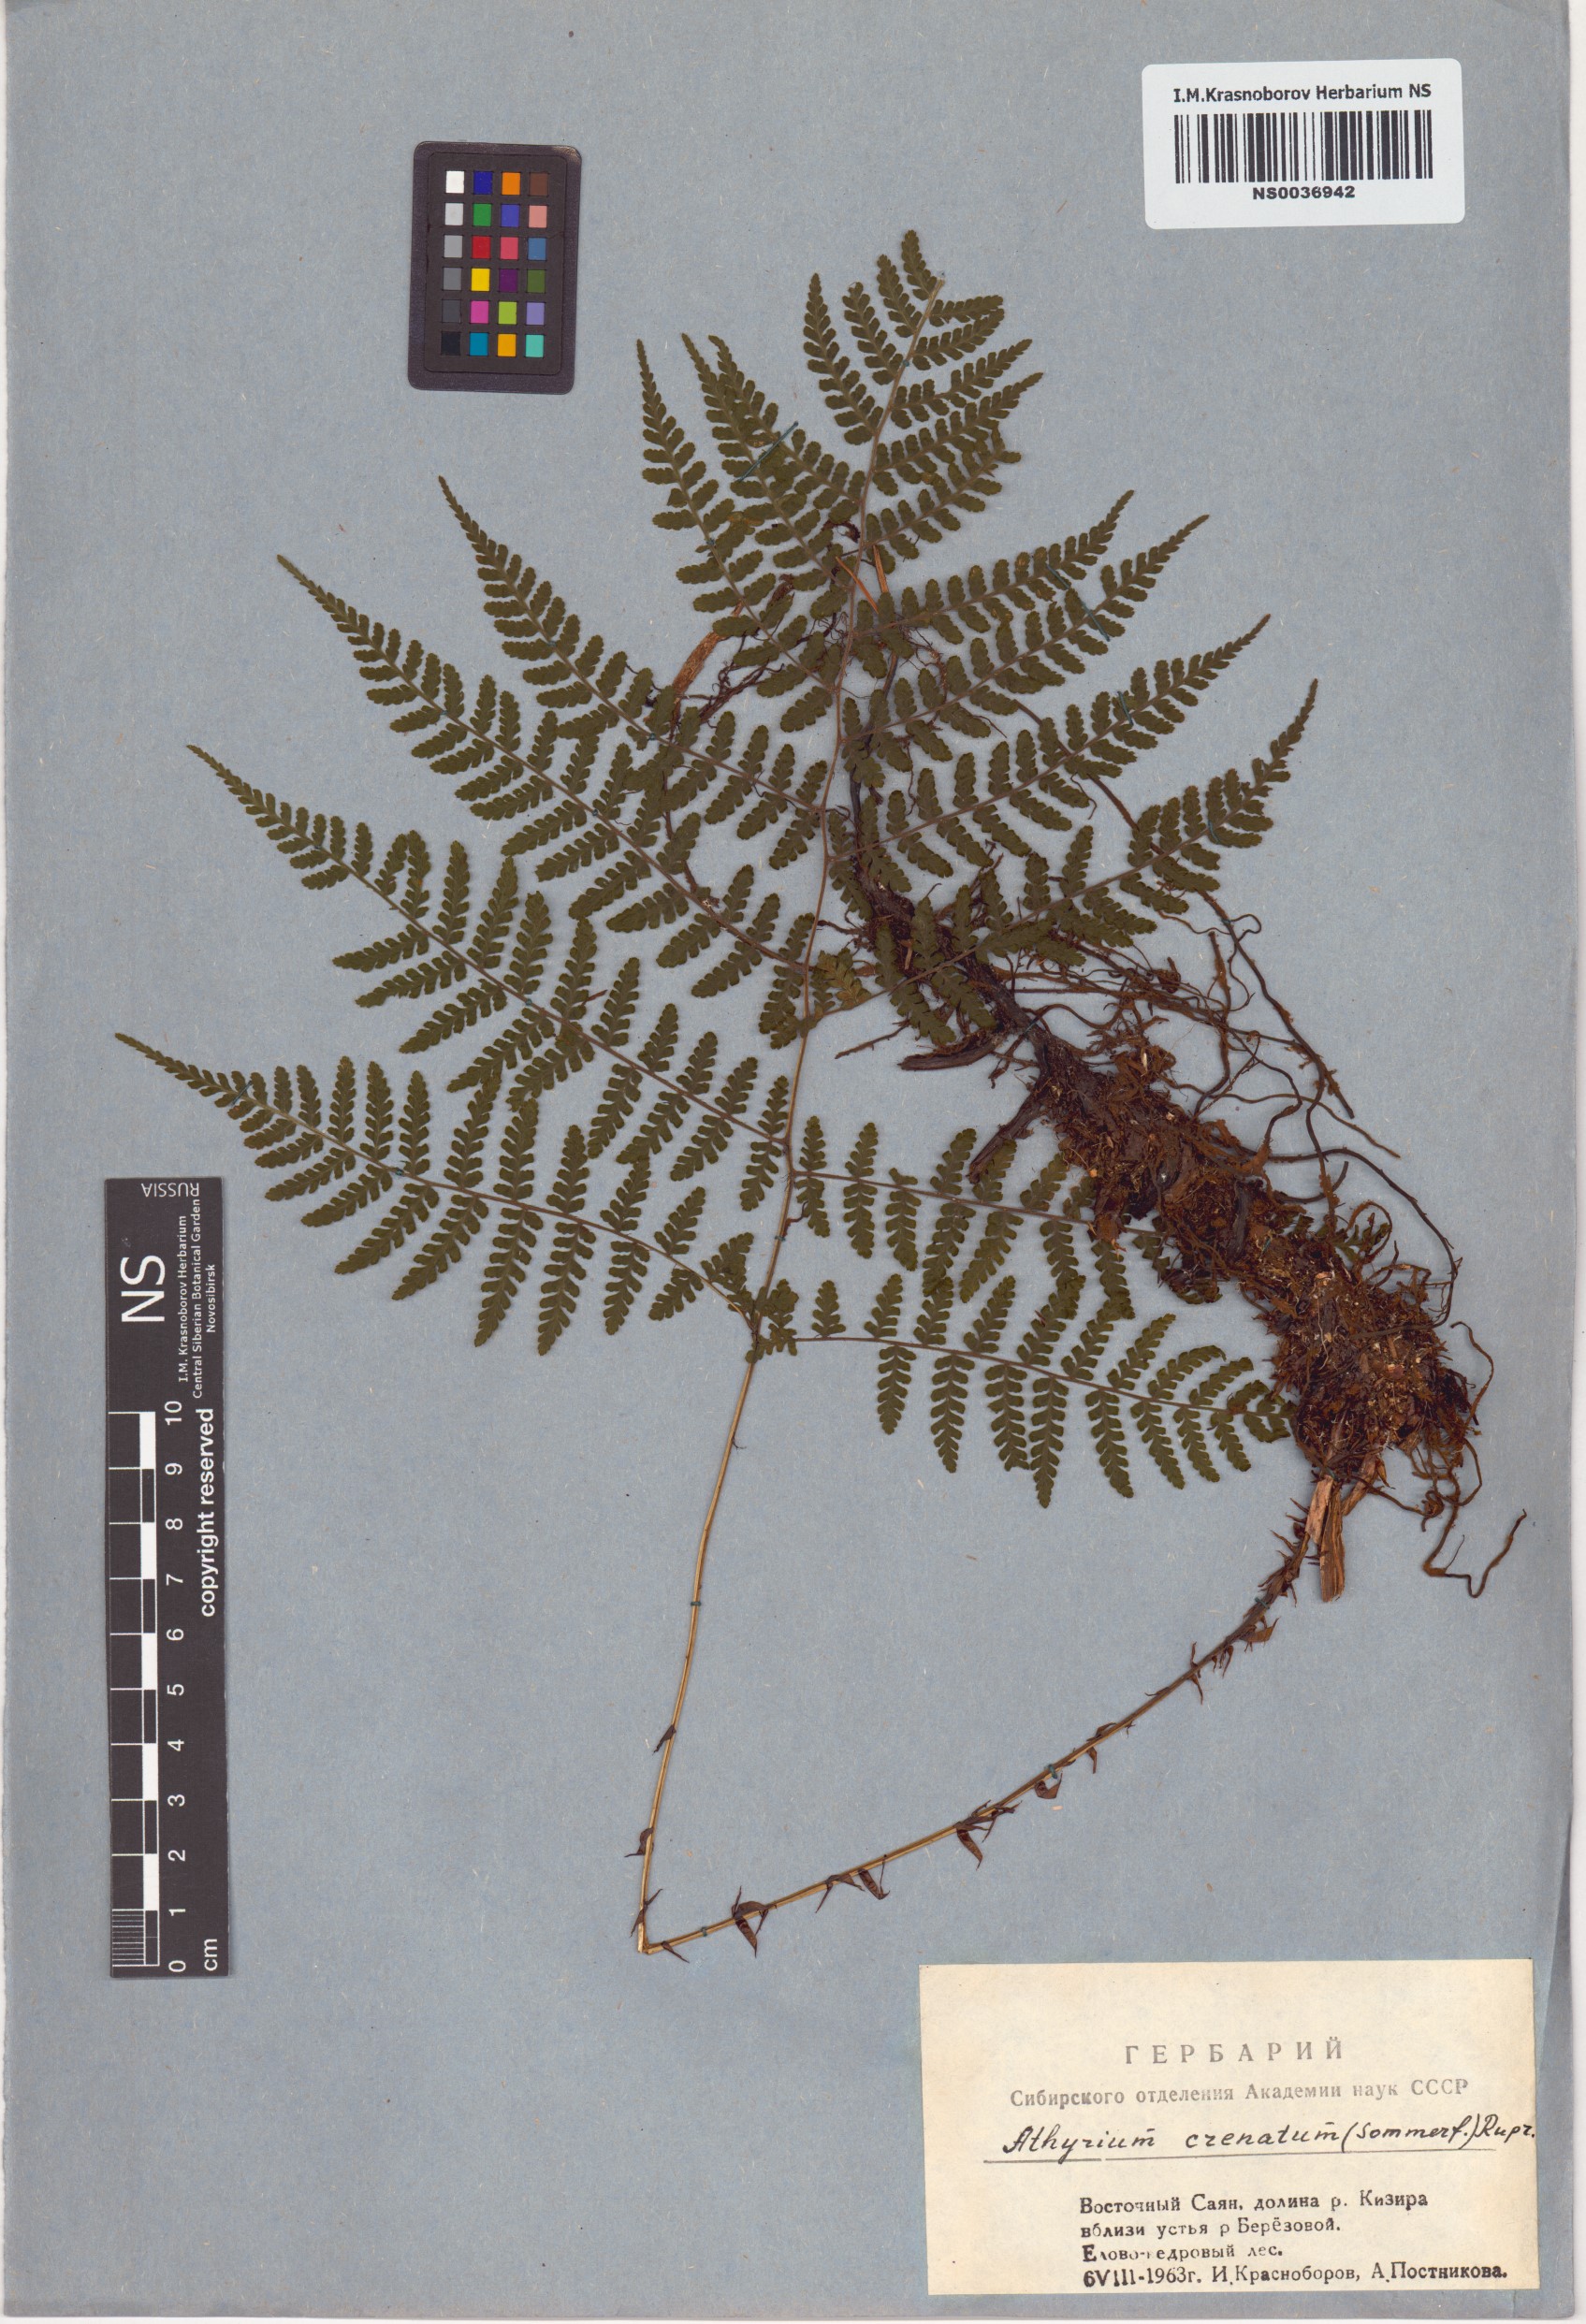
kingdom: Plantae
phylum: Tracheophyta
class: Polypodiopsida
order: Polypodiales
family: Athyriaceae
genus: Diplazium
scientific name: Diplazium sibiricum
